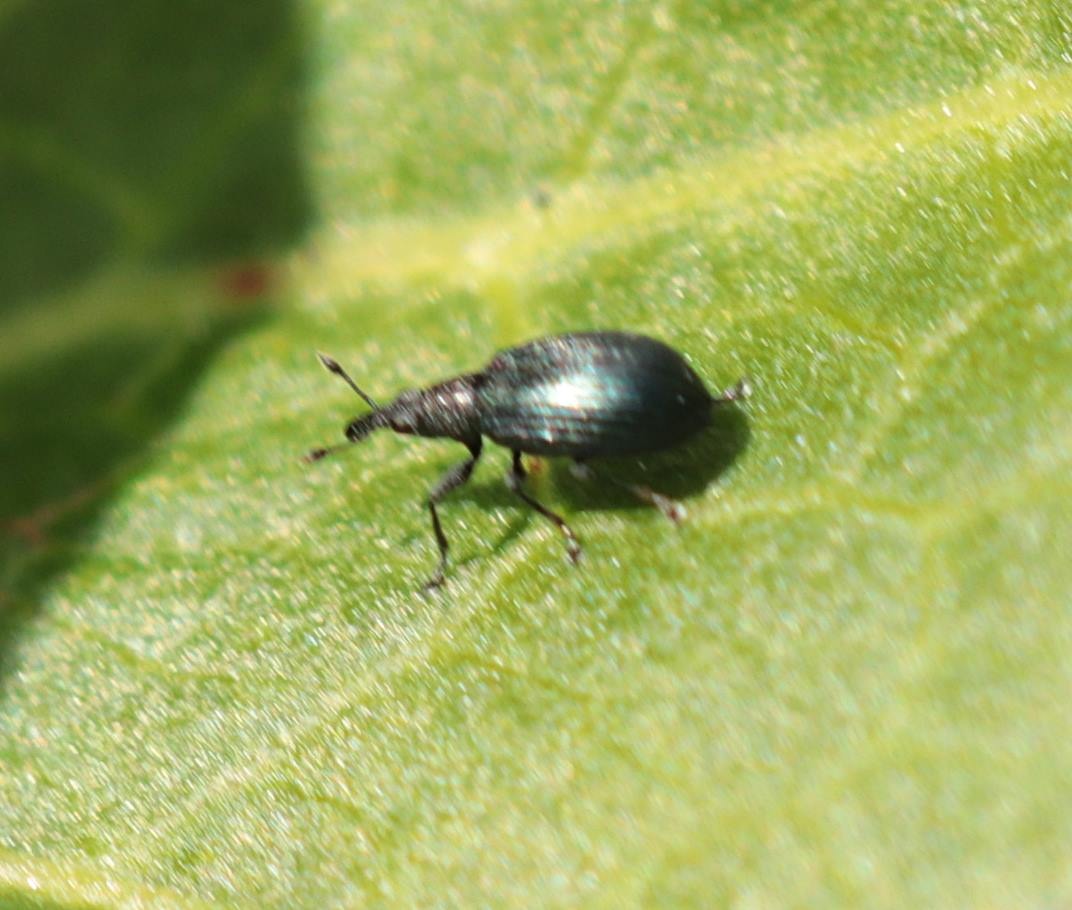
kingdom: Animalia
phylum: Arthropoda
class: Insecta
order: Coleoptera
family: Brentidae
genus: Perapion
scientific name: Perapion hydrolapathi
